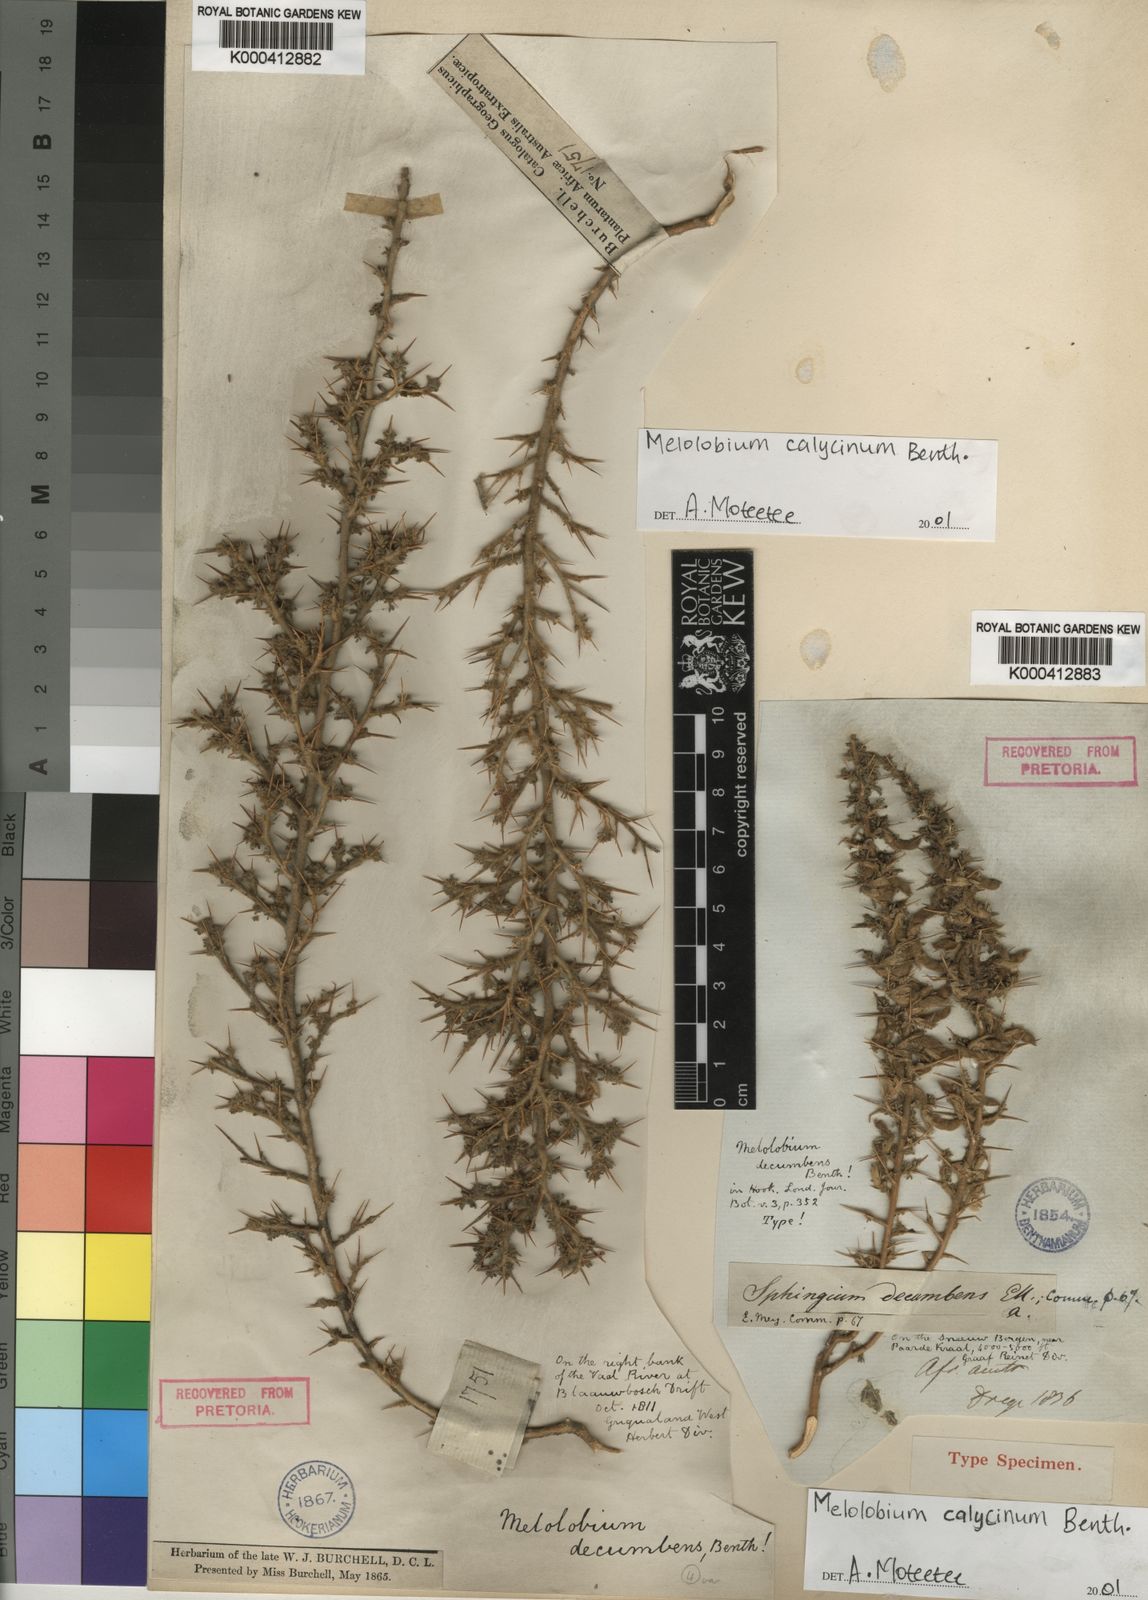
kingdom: Plantae
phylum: Tracheophyta
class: Magnoliopsida
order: Fabales
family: Fabaceae
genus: Melolobium
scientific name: Melolobium calycinum
